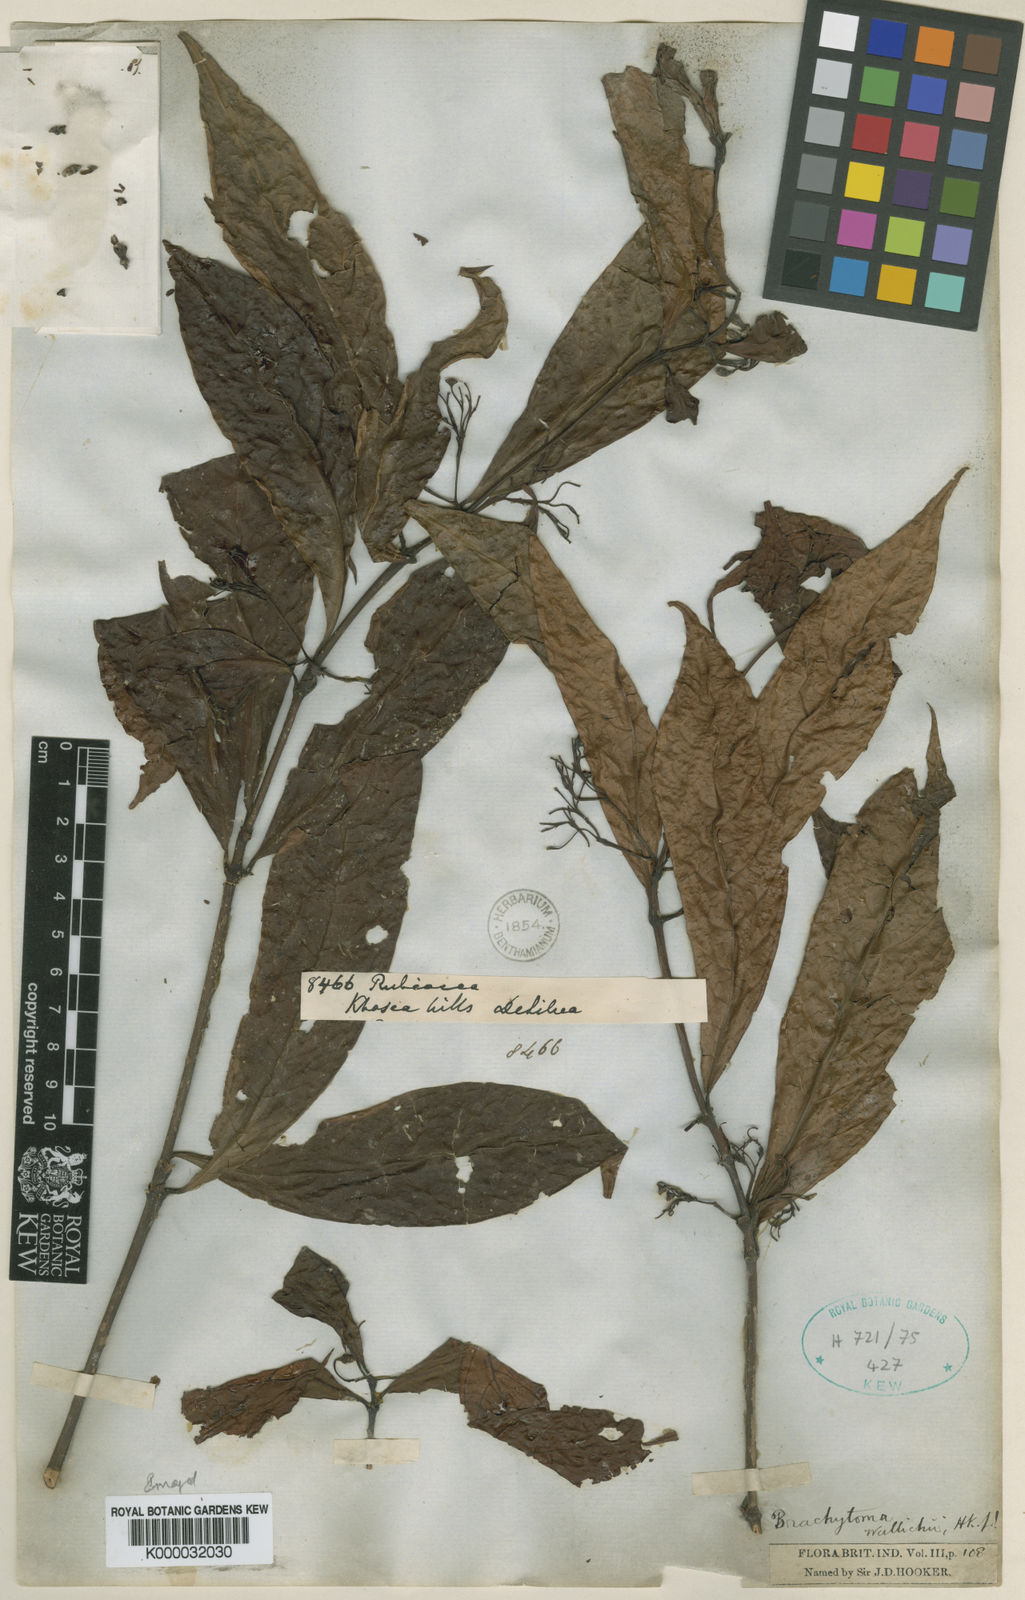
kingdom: Plantae
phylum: Tracheophyta
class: Magnoliopsida
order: Gentianales
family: Rubiaceae
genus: Brachytome
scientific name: Brachytome wallichii
